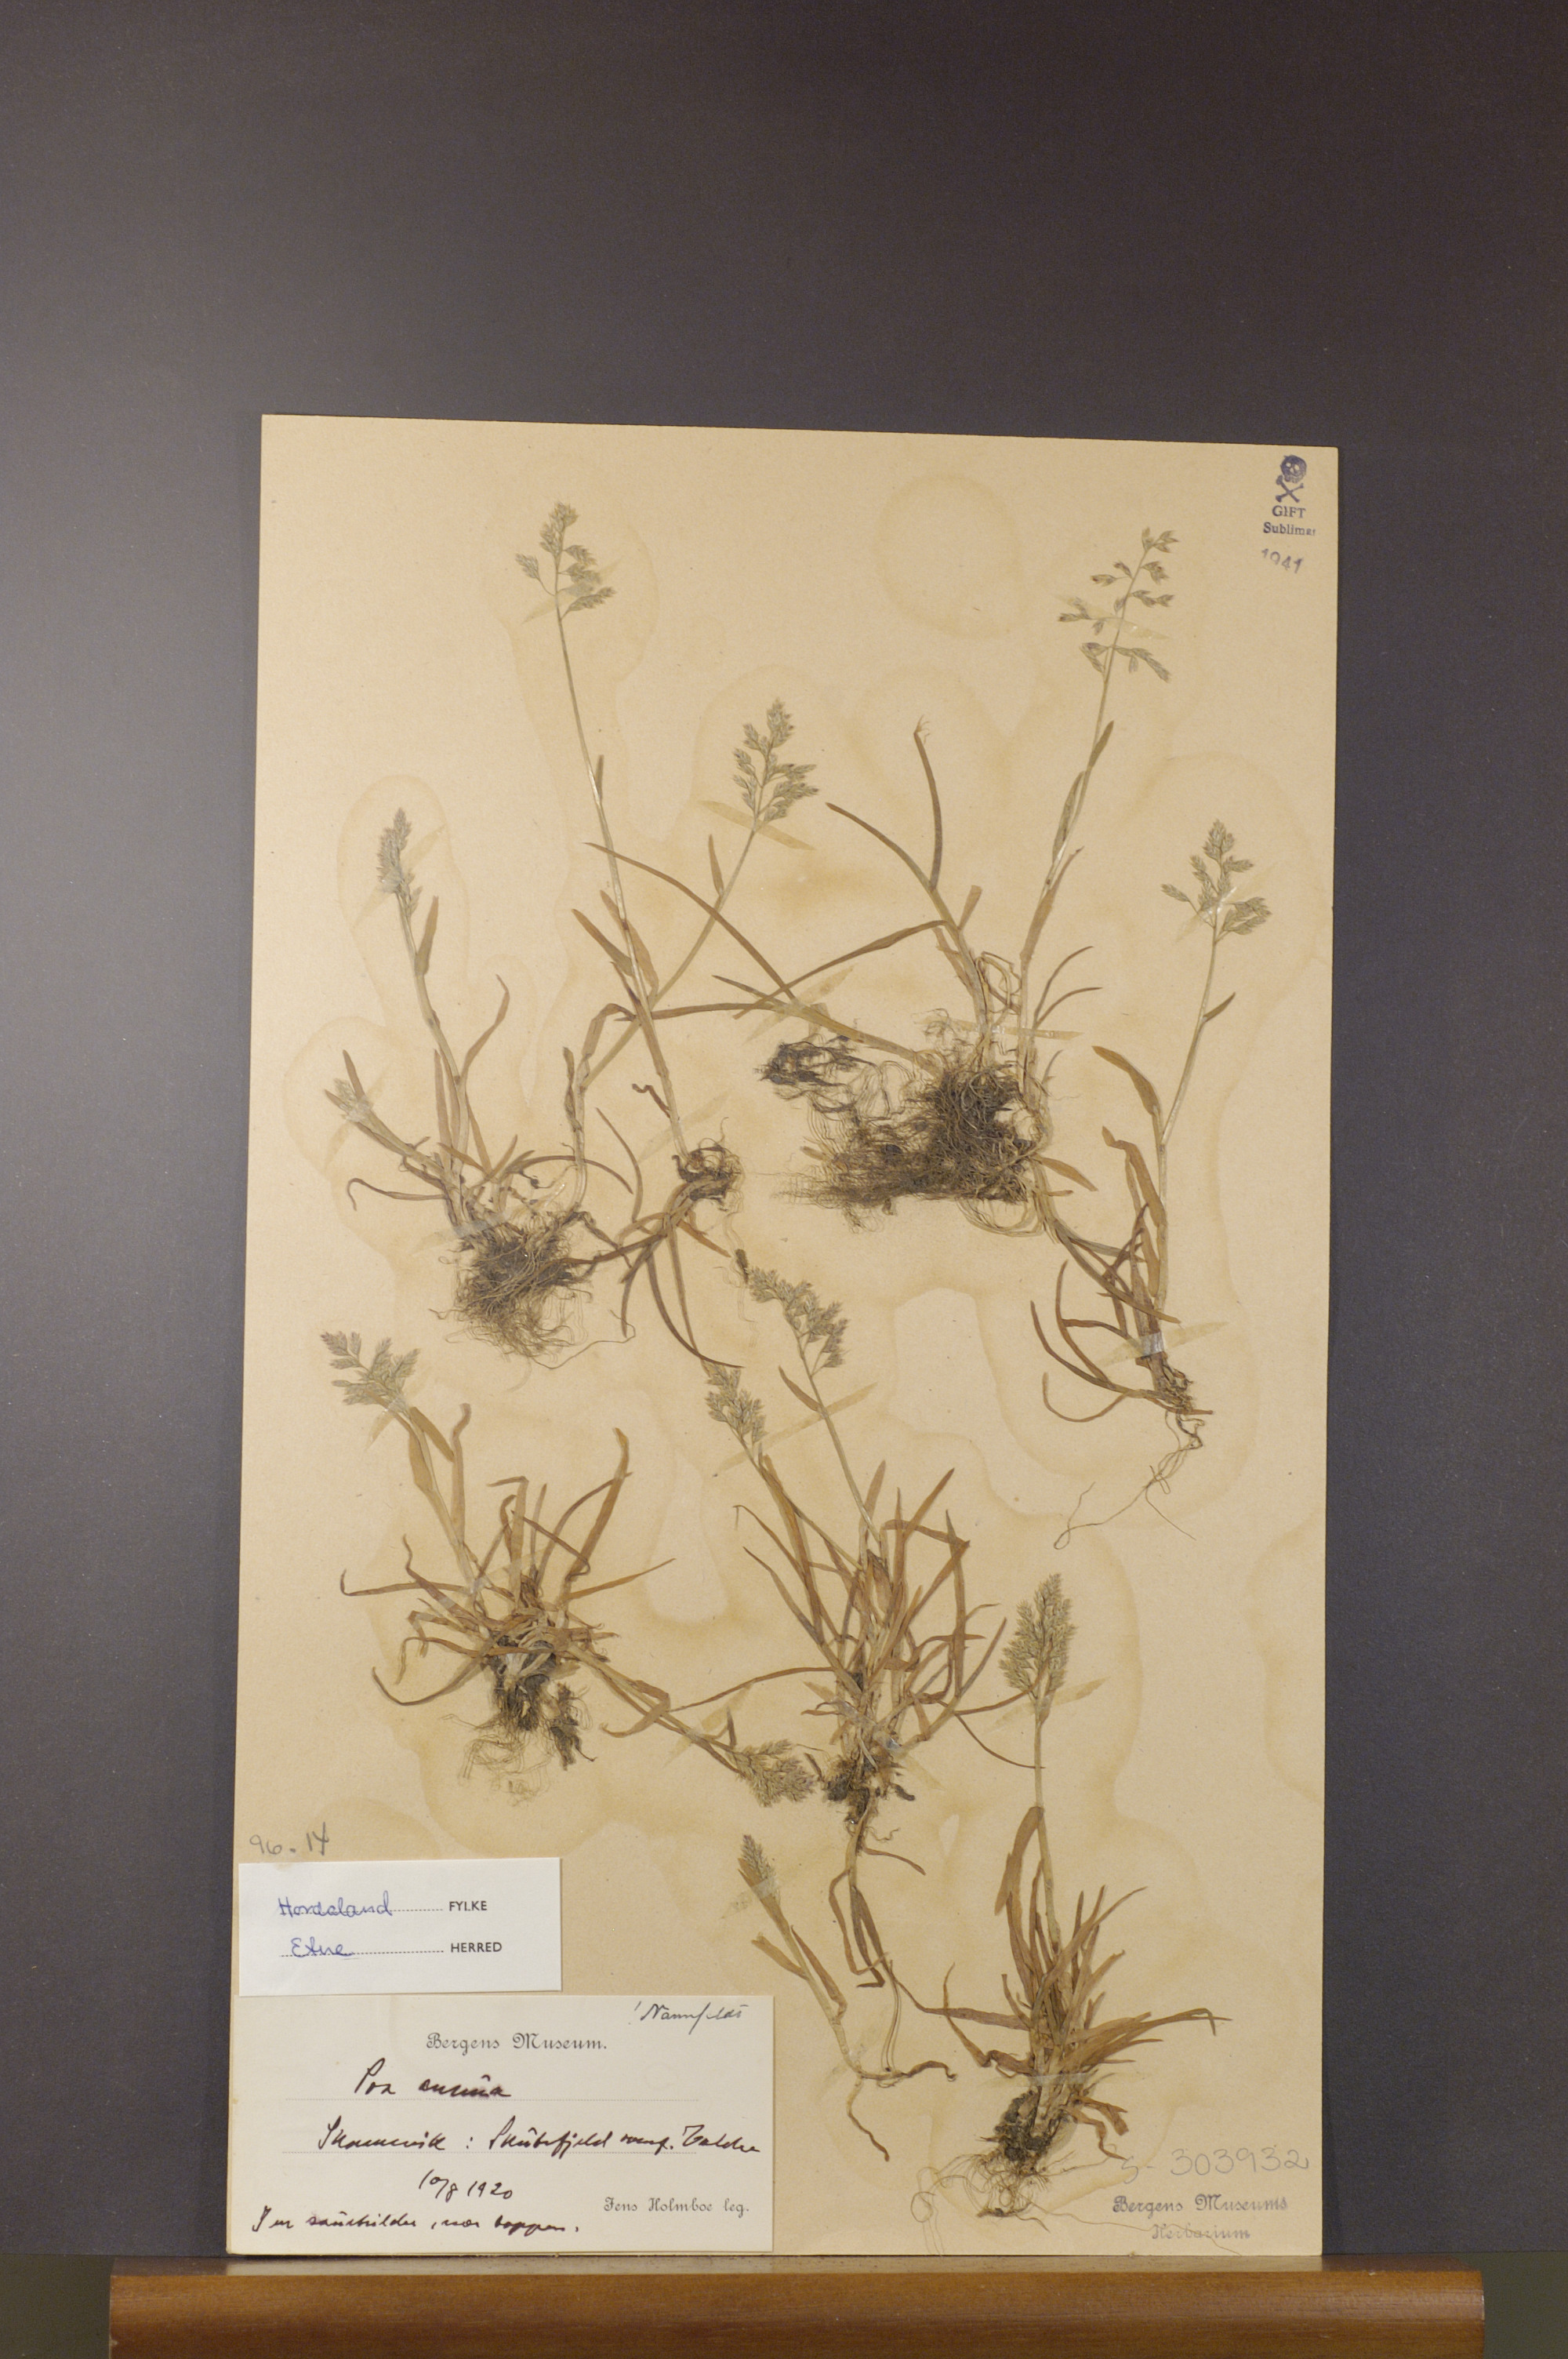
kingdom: Plantae
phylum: Tracheophyta
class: Liliopsida
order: Poales
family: Poaceae
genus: Poa
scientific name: Poa annua
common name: Annual bluegrass
